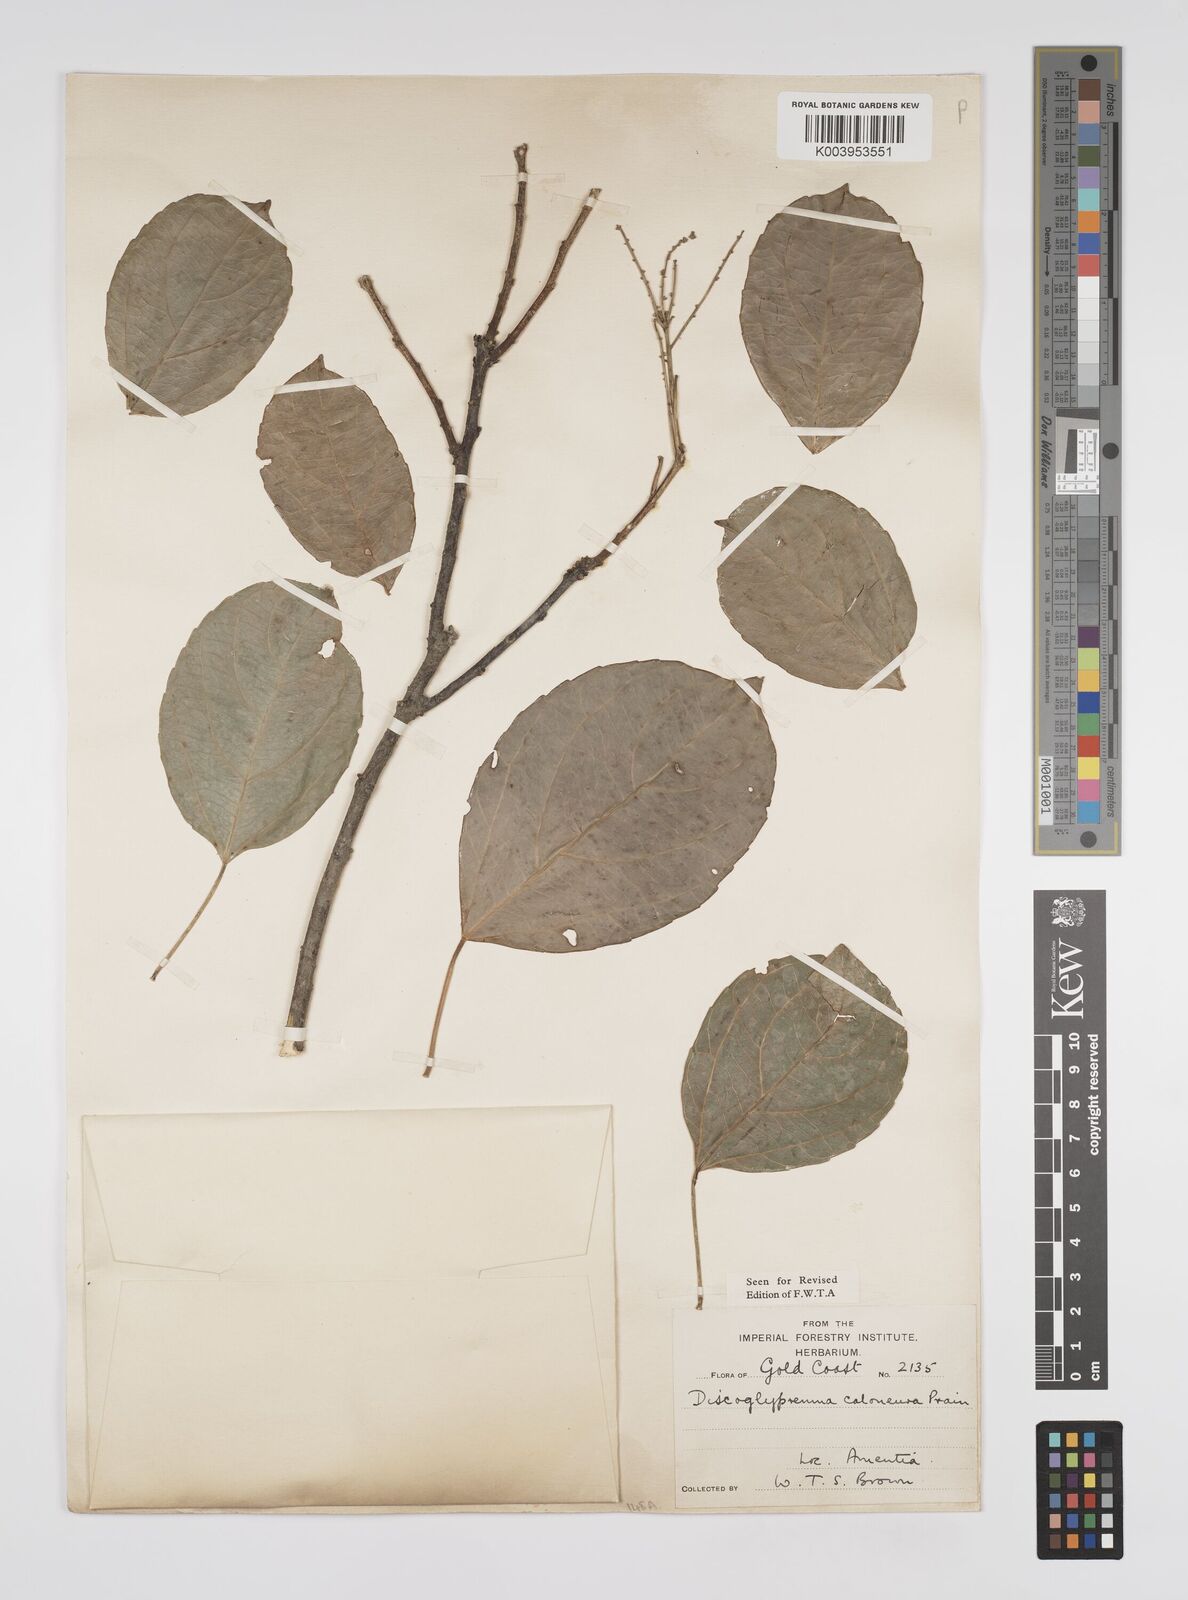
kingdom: Plantae
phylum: Tracheophyta
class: Magnoliopsida
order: Malpighiales
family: Euphorbiaceae
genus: Discoglypremna
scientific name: Discoglypremna caloneura
